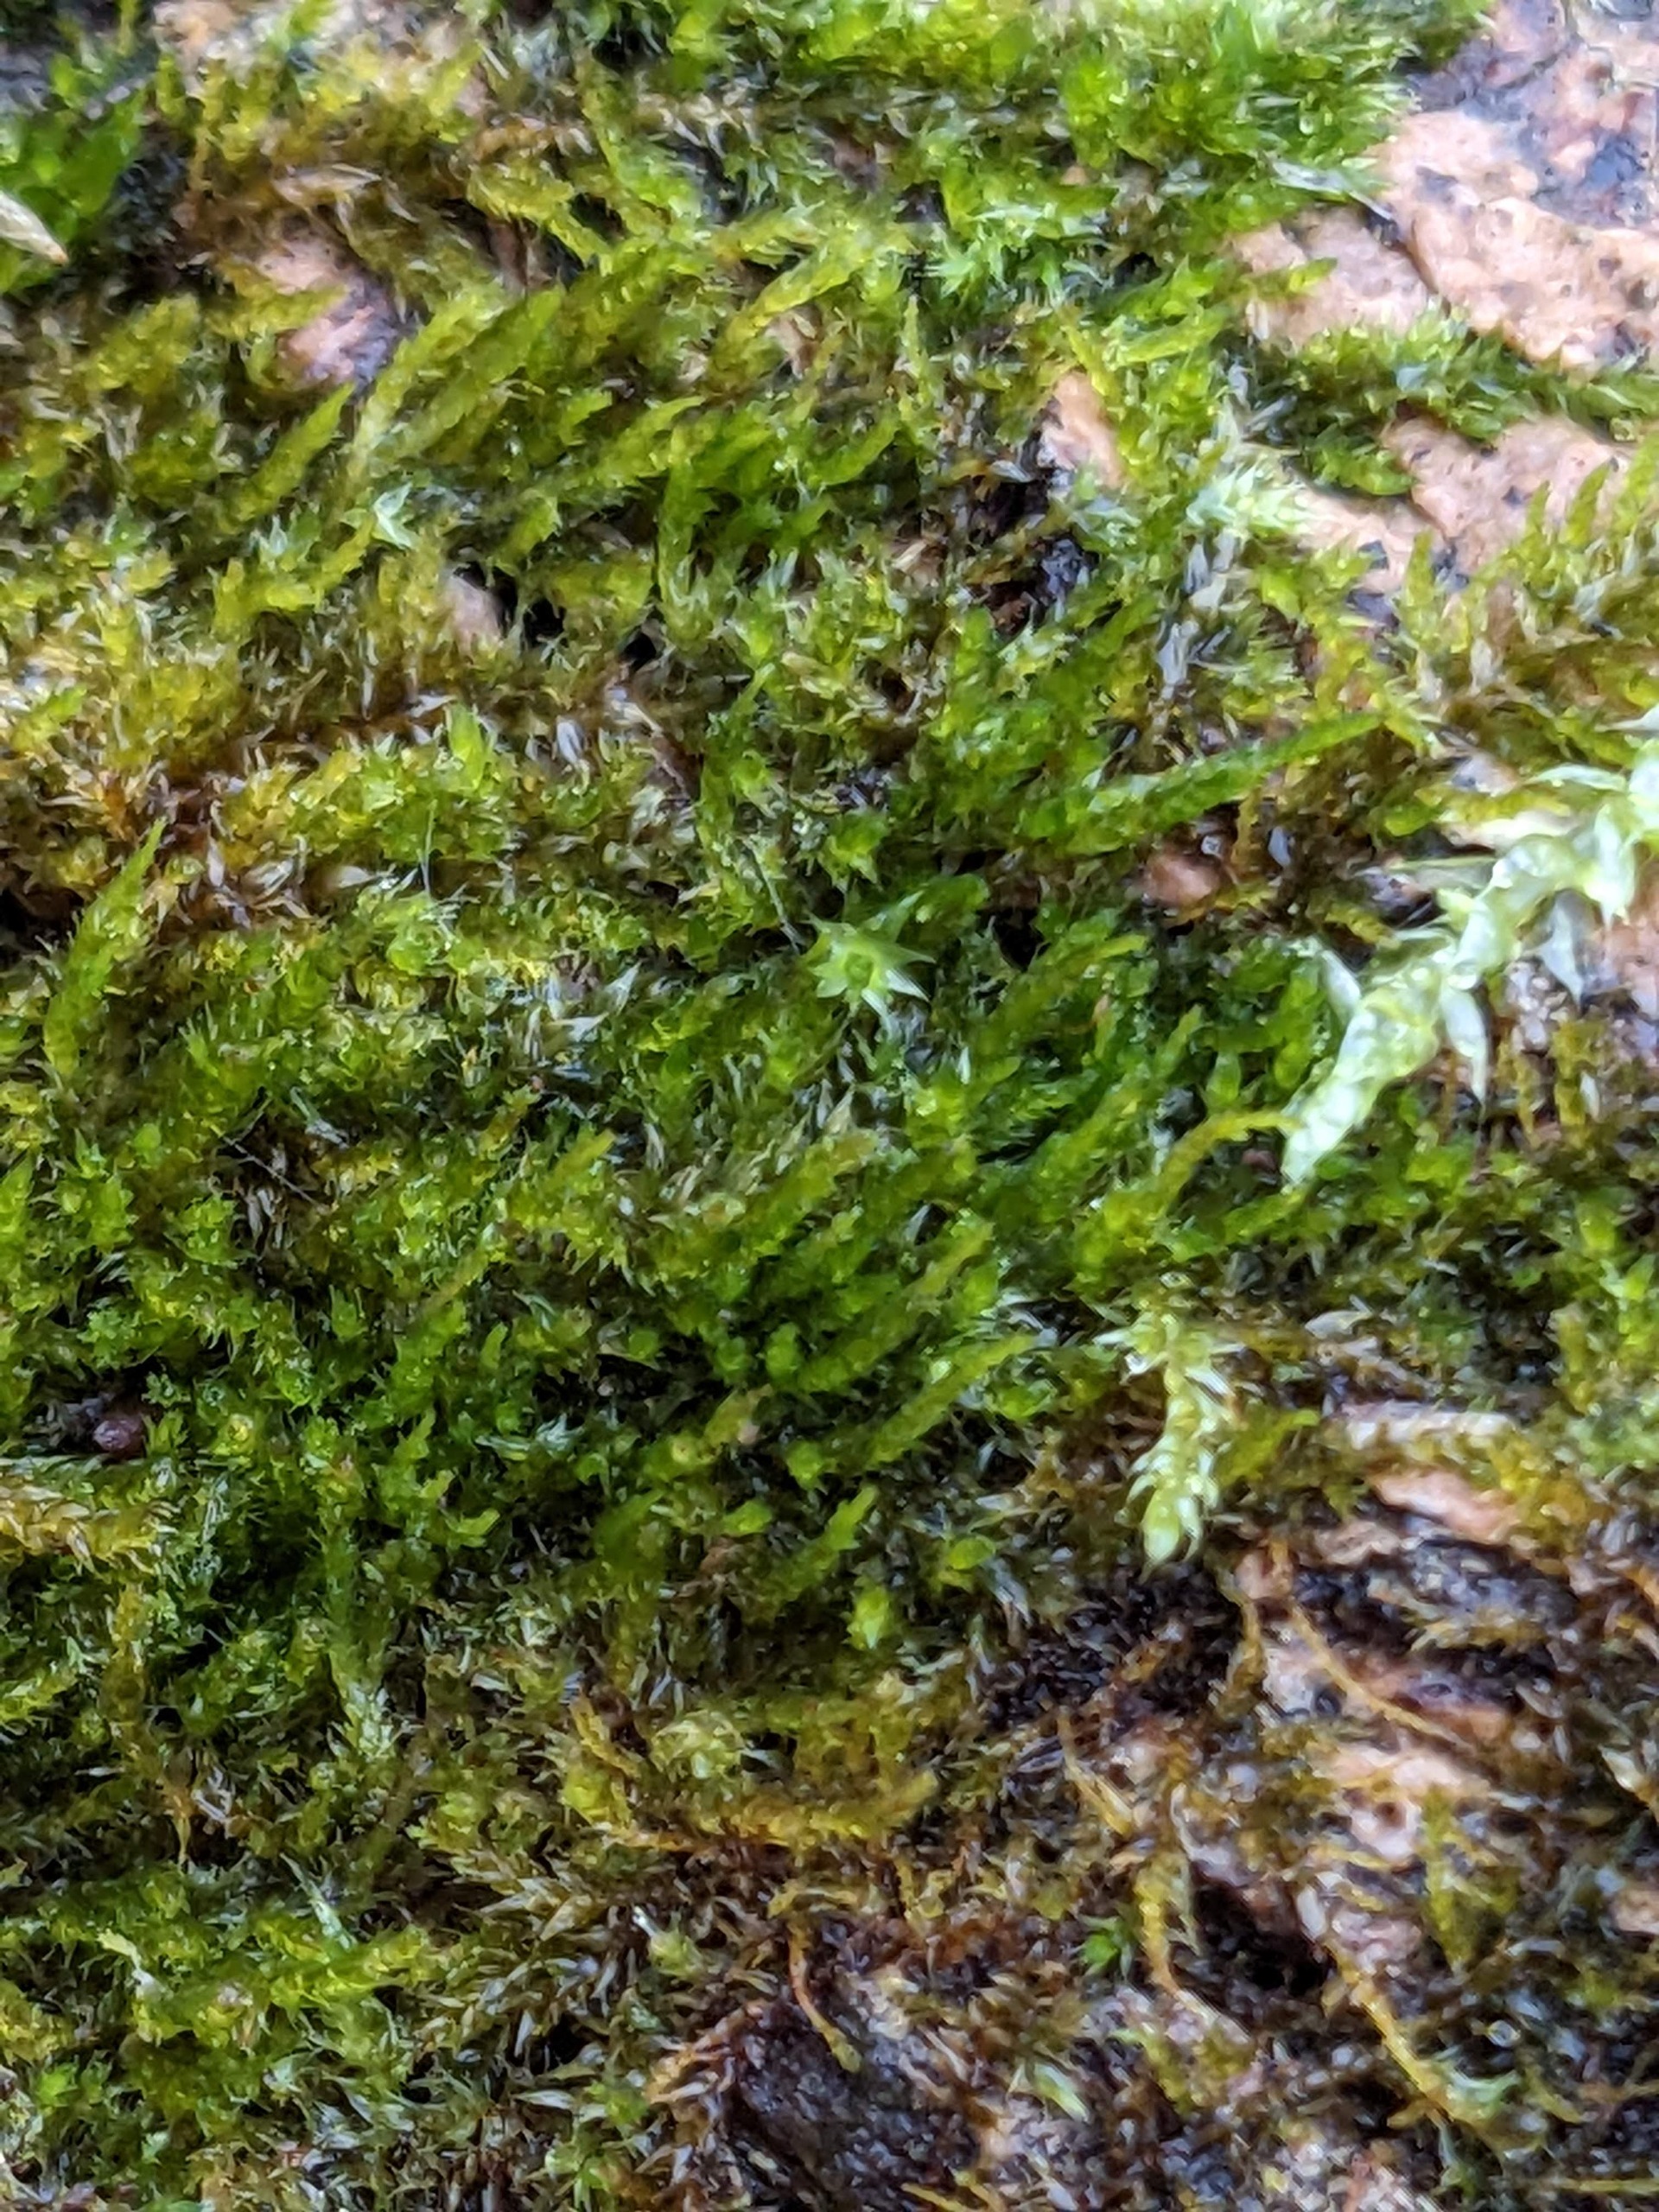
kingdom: Plantae
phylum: Bryophyta
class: Bryopsida
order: Hypnales
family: Pylaisiadelphaceae
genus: Platygyrium
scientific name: Platygyrium repens
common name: Mørk yngleknop
